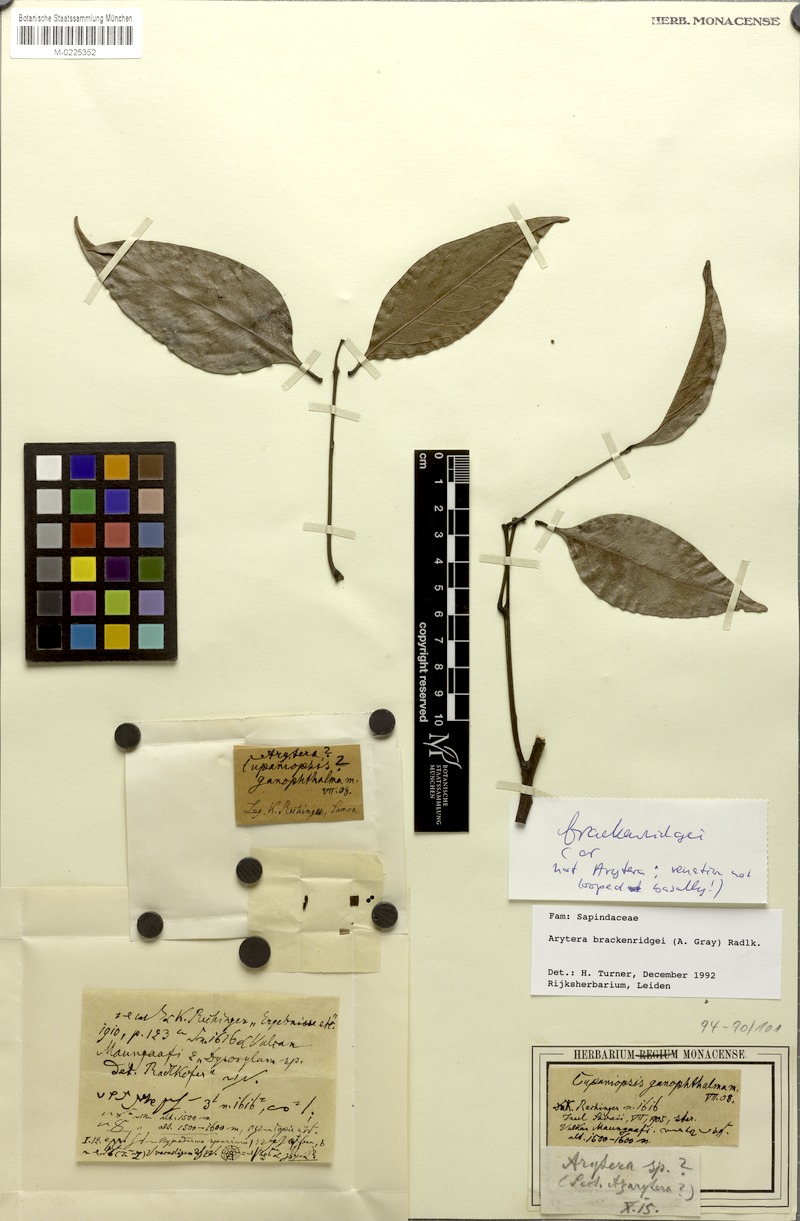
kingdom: Plantae
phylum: Tracheophyta
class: Magnoliopsida
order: Sapindales
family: Sapindaceae
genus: Lepidocupania
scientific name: Lepidocupania brackenridgei
